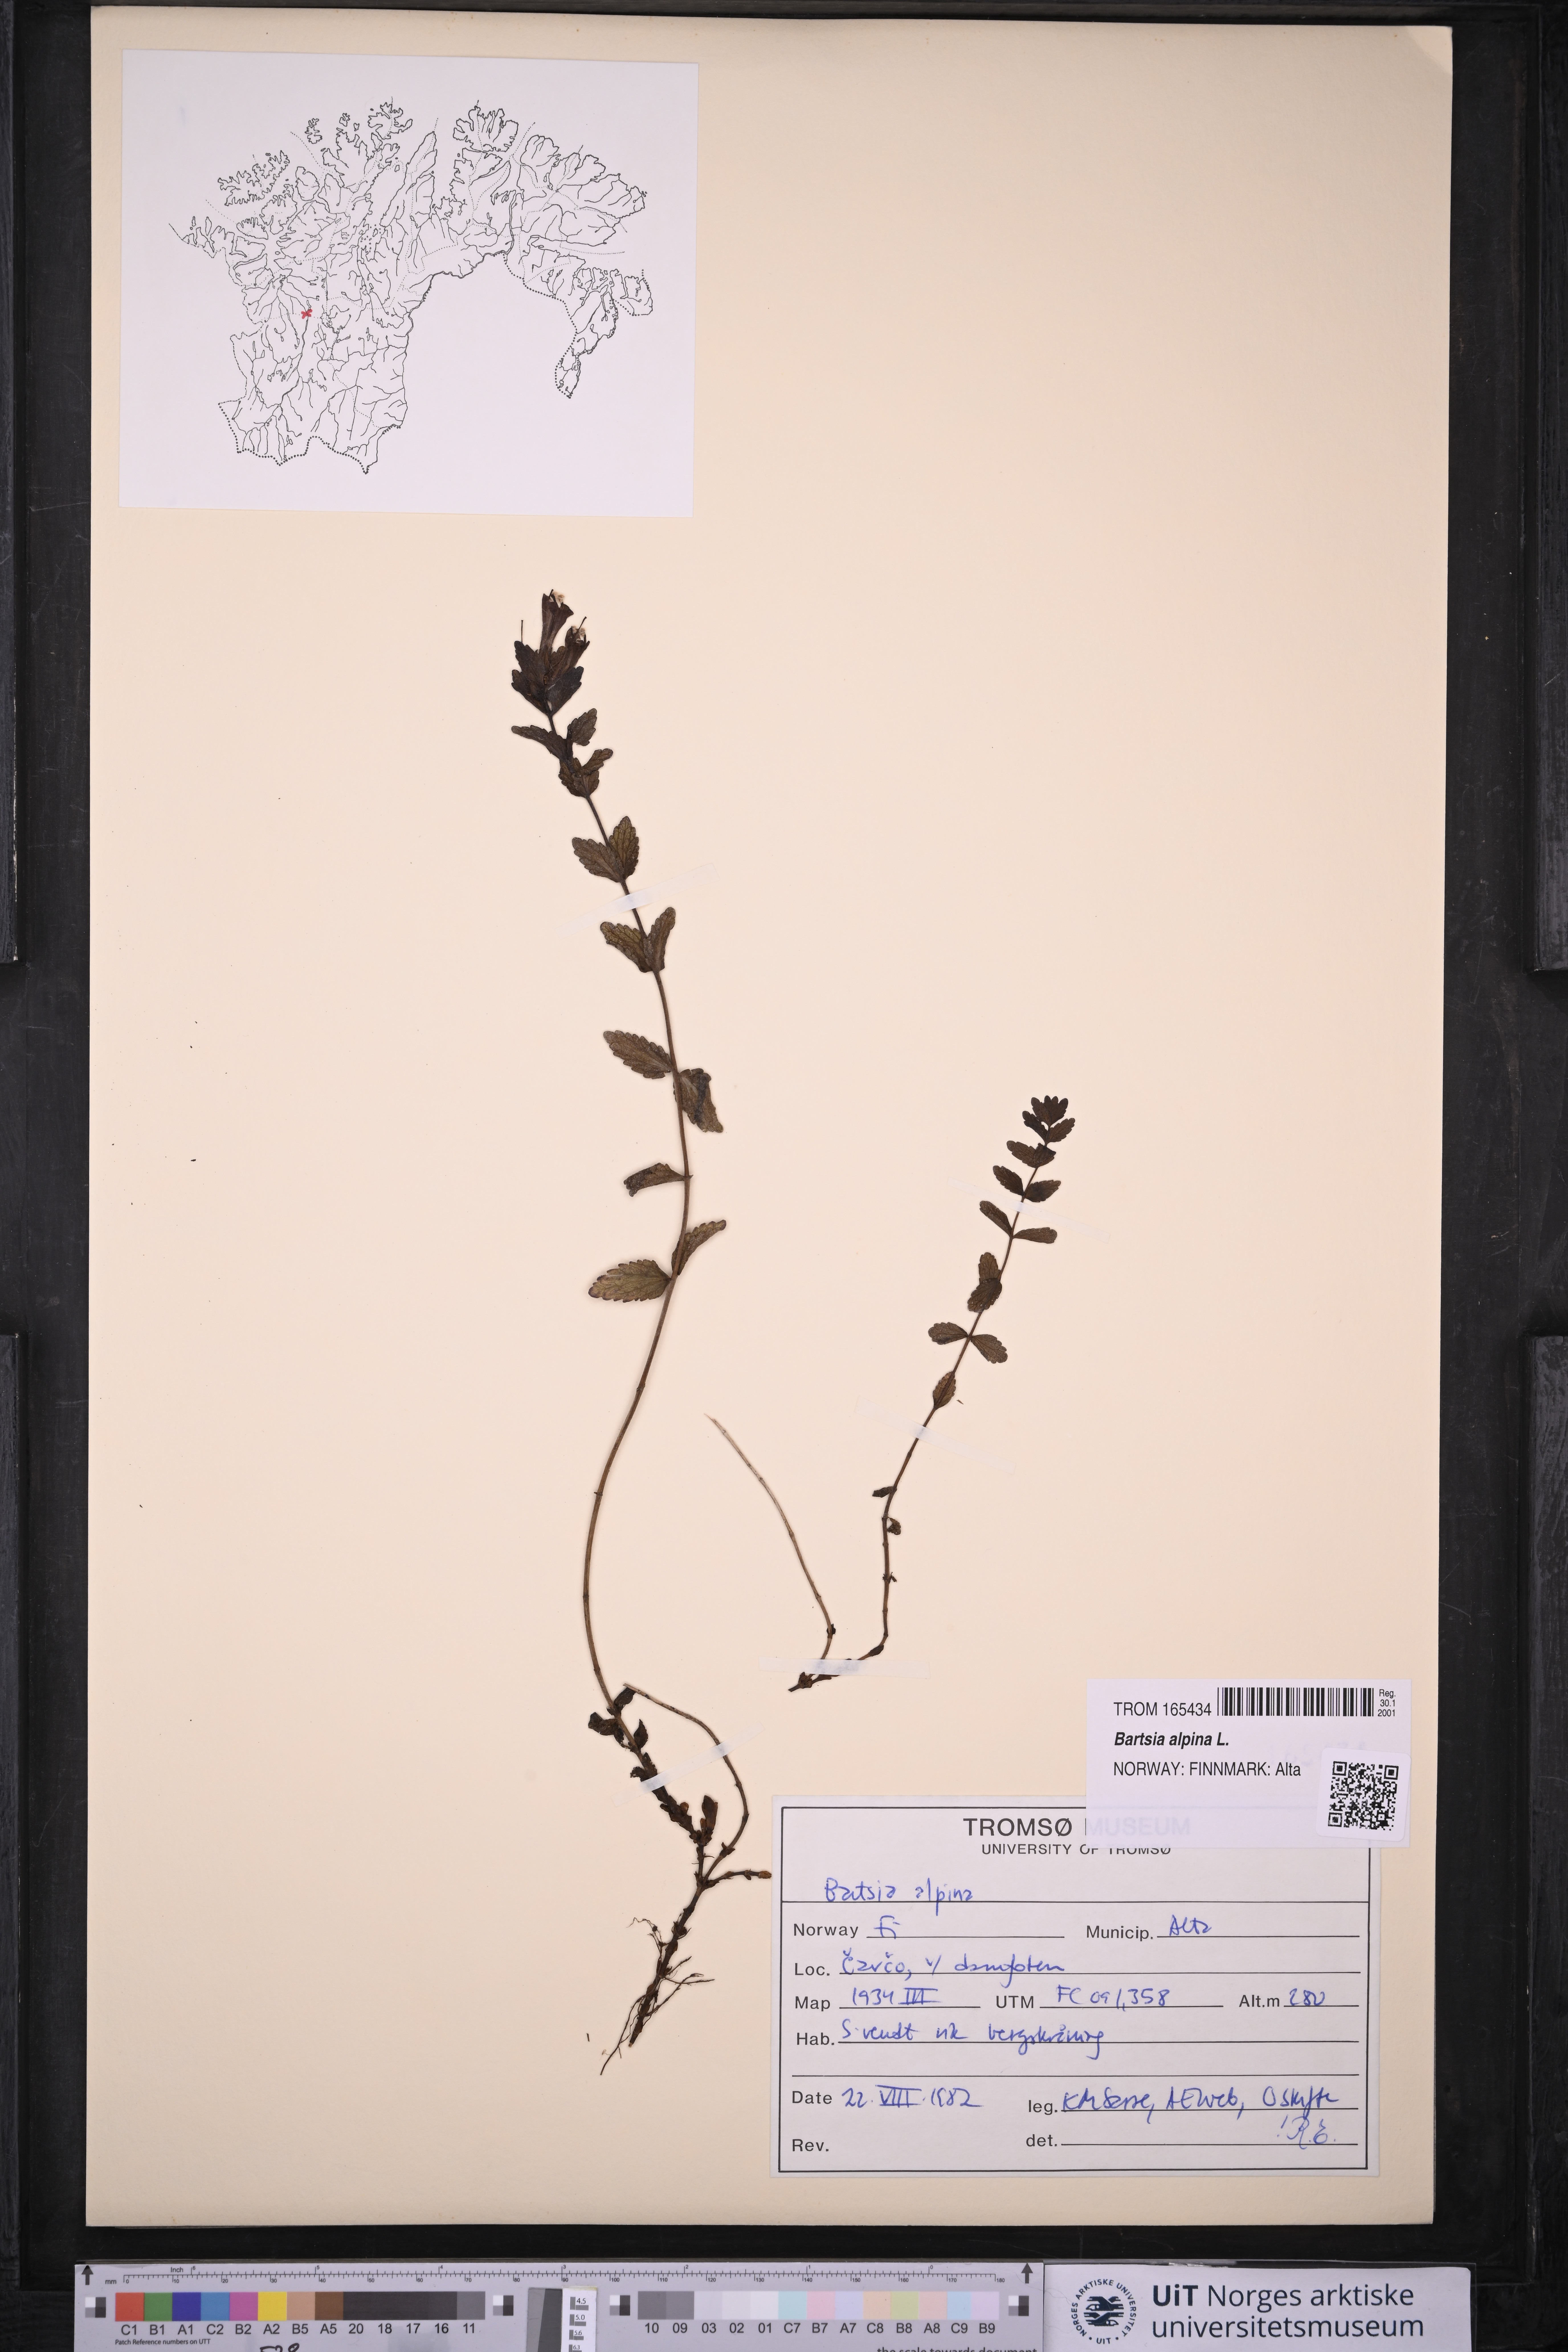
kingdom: Plantae
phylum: Tracheophyta
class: Magnoliopsida
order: Lamiales
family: Orobanchaceae
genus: Bartsia
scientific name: Bartsia alpina
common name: Alpine bartsia
